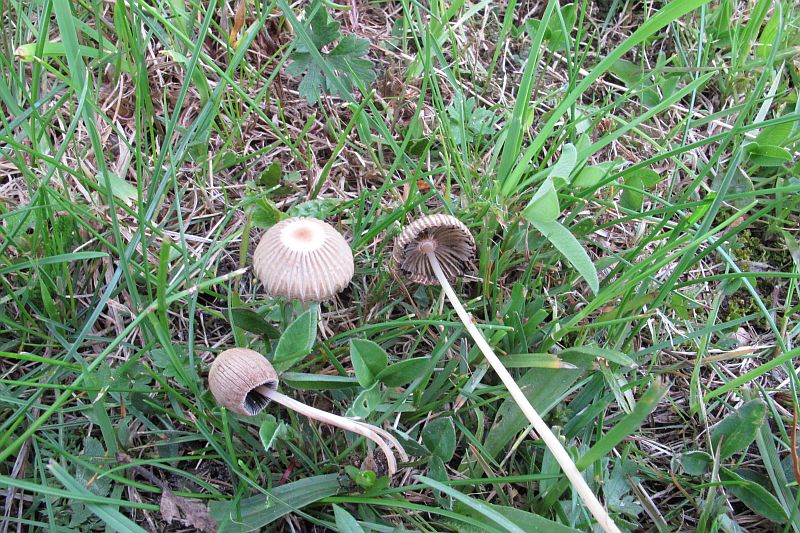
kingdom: Fungi
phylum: Basidiomycota
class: Agaricomycetes
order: Agaricales
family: Psathyrellaceae
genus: Parasola
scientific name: Parasola schroeteri
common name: bredsporet hjulhat
